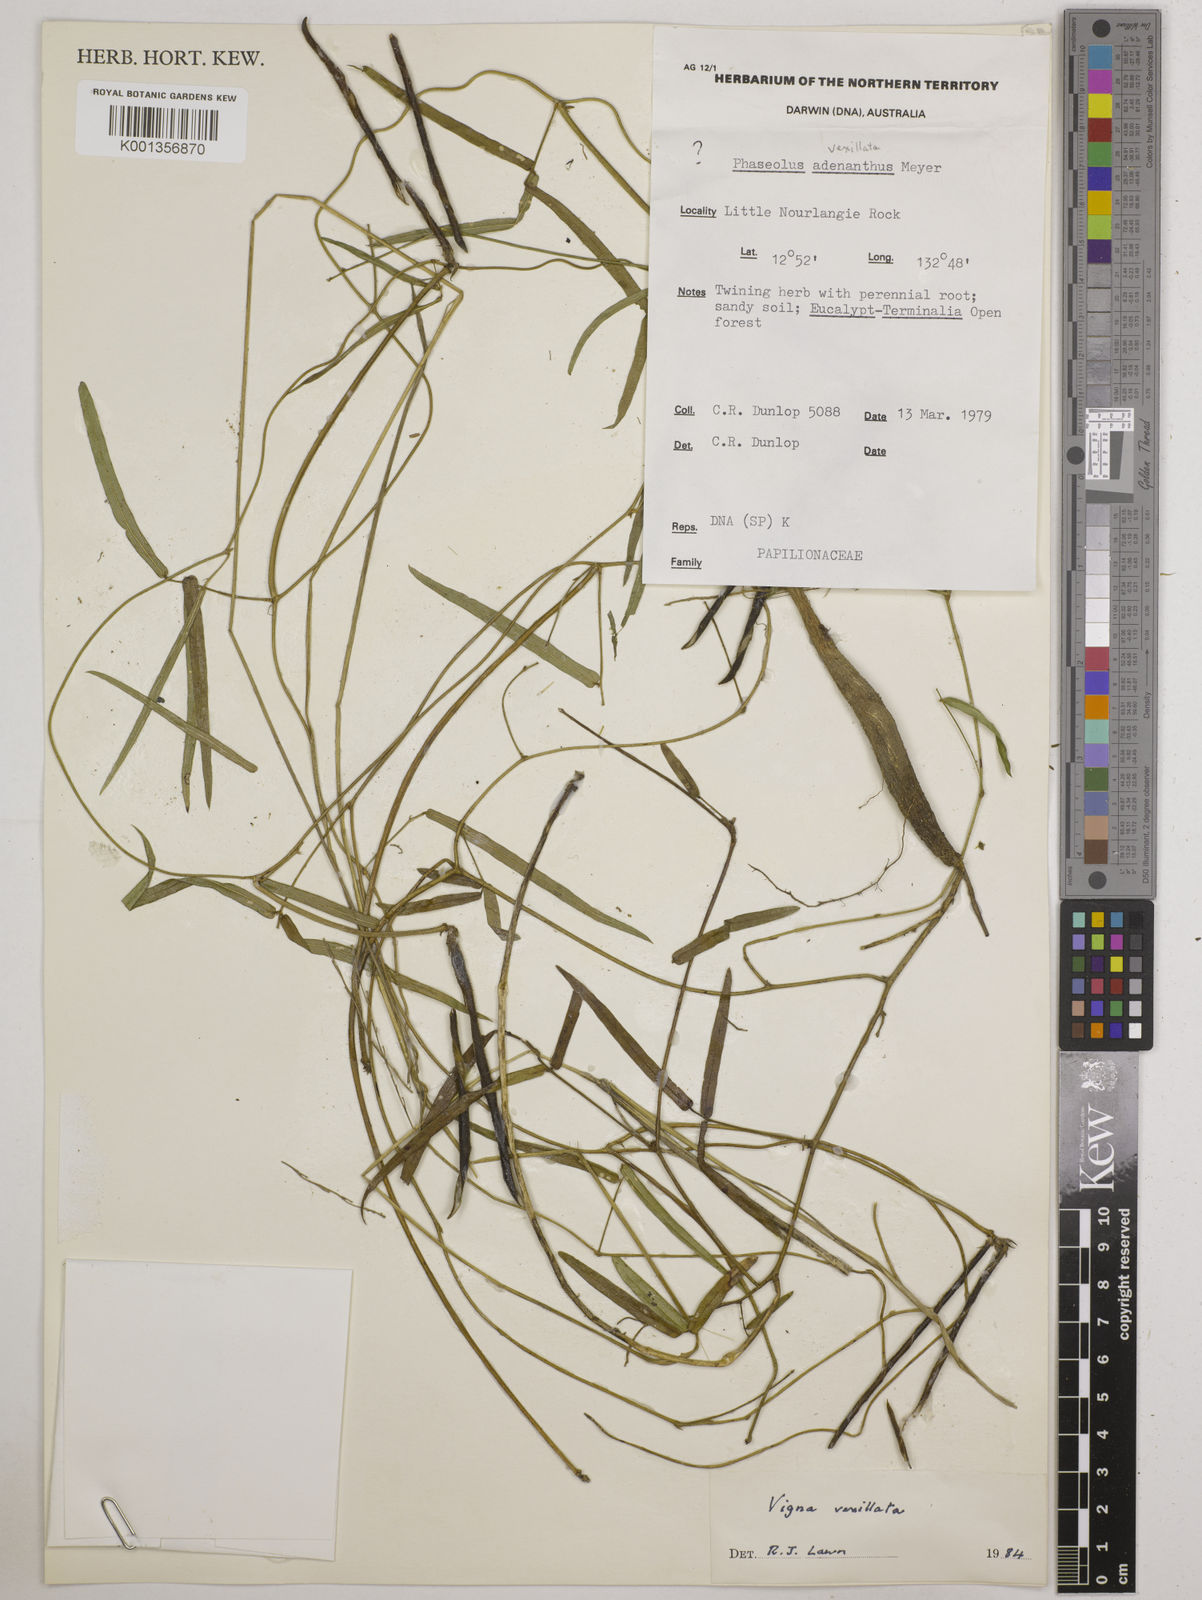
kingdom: Plantae
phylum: Tracheophyta
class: Magnoliopsida
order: Fabales
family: Fabaceae
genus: Vigna
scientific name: Vigna lanceolata
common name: Maloga-bean
